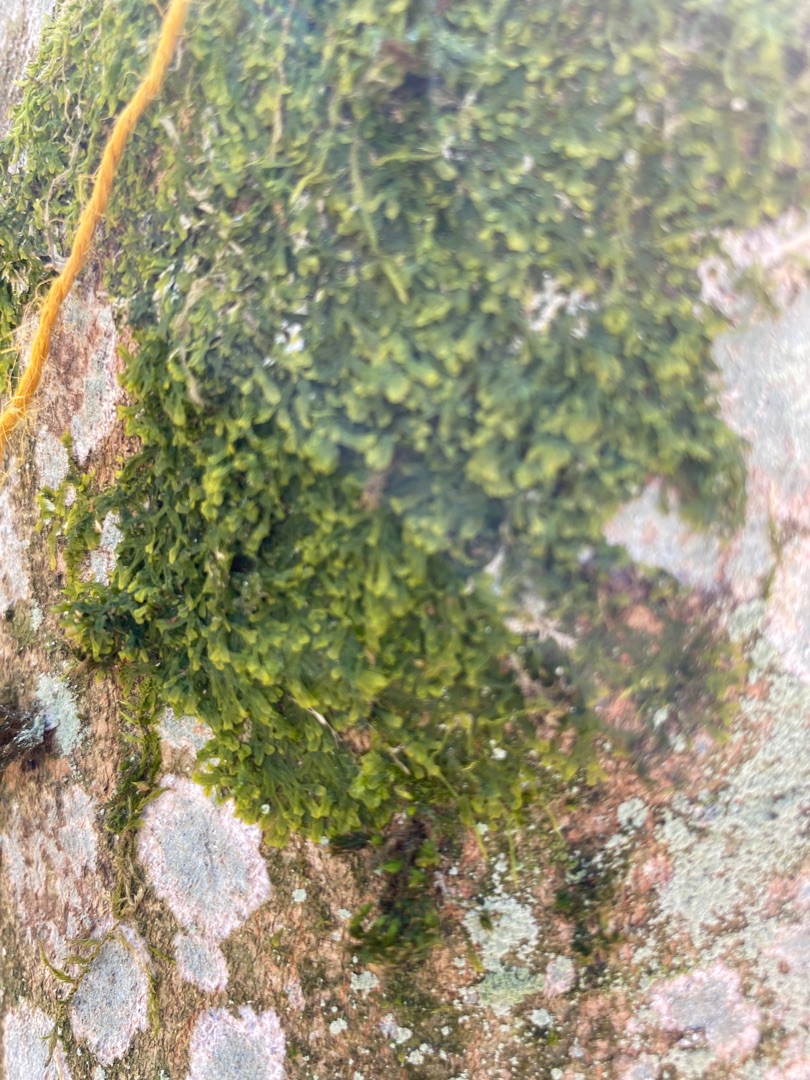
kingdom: Plantae
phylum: Marchantiophyta
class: Jungermanniopsida
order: Metzgeriales
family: Metzgeriaceae
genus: Metzgeria
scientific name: Metzgeria furcata
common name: Almindelig gaffelløv
